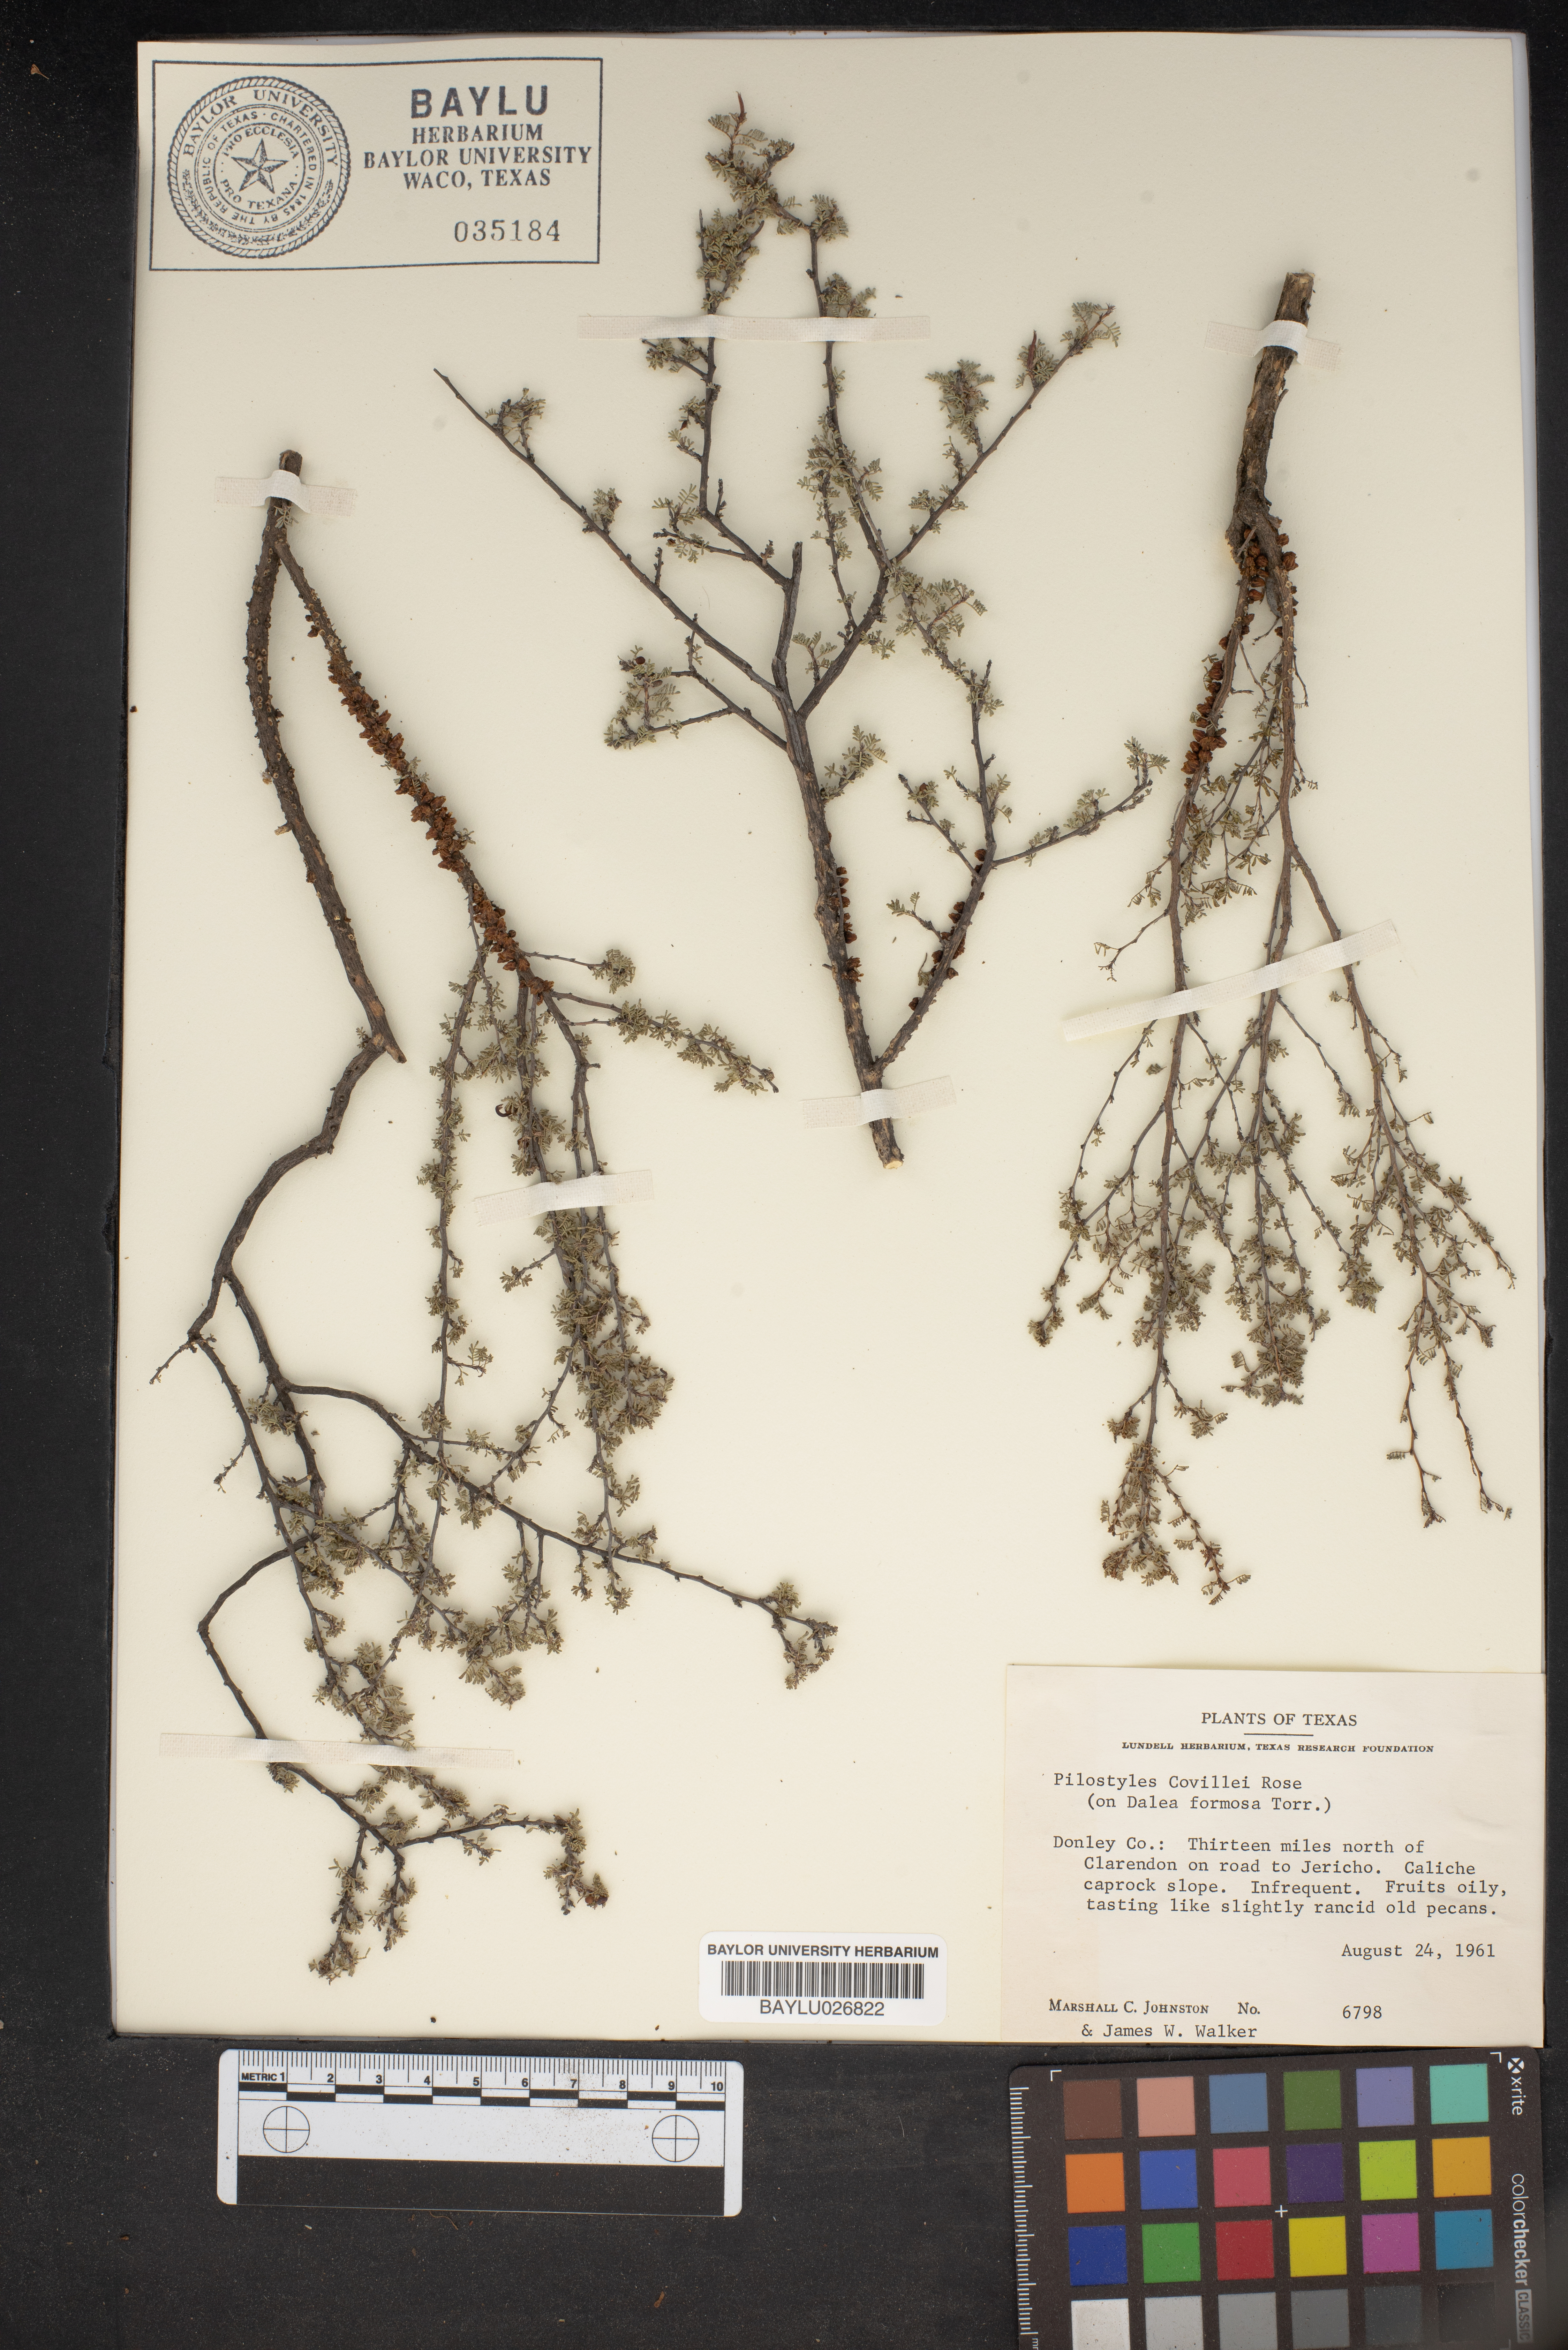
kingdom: Plantae
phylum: Tracheophyta
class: Magnoliopsida
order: Cucurbitales
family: Apodanthaceae
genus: Pilostyles
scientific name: Pilostyles thurberi
